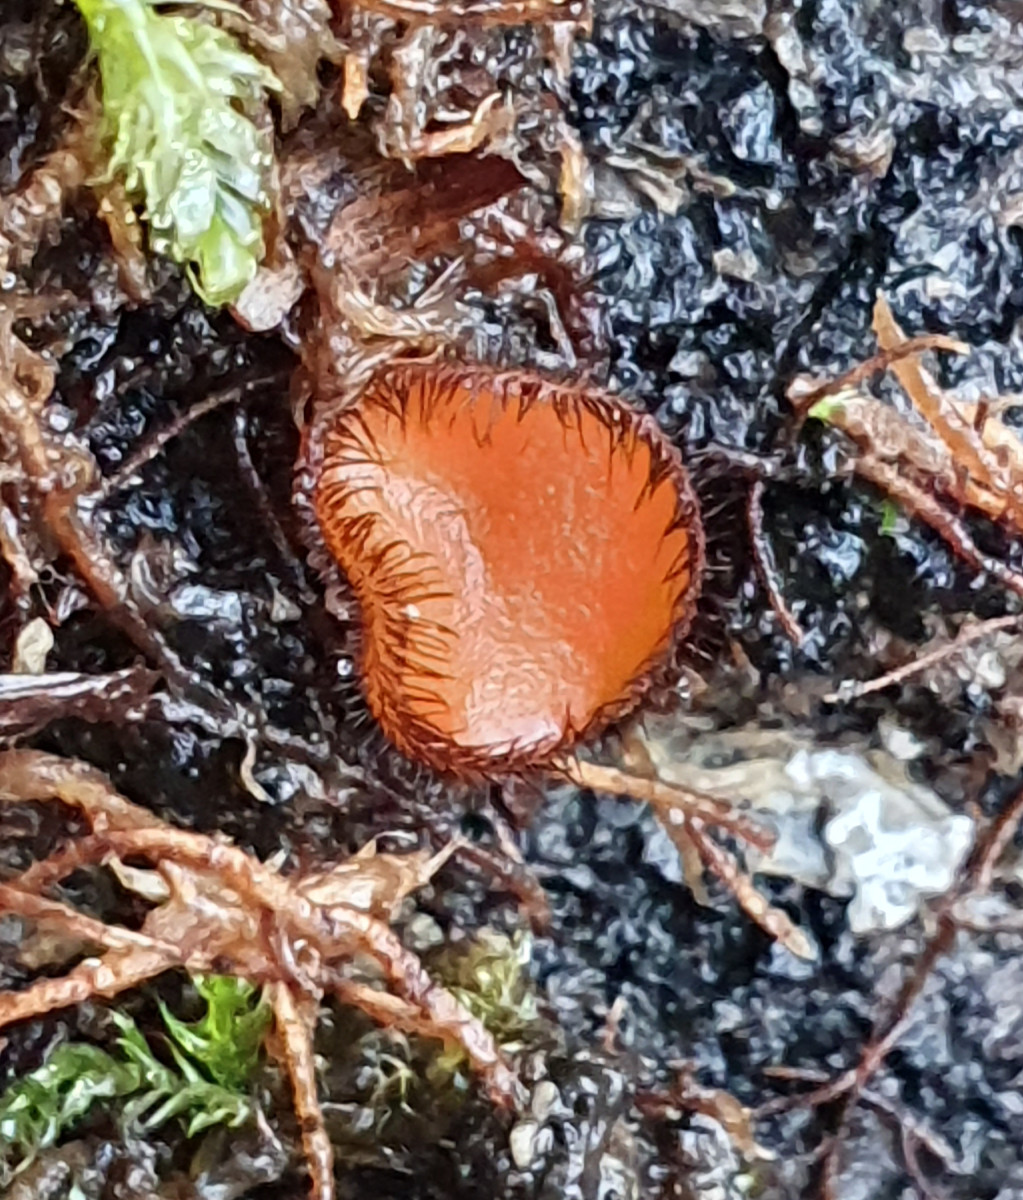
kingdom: Fungi
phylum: Ascomycota
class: Pezizomycetes
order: Pezizales
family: Pyronemataceae
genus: Scutellinia
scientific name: Scutellinia scutellata
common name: frynset skjoldbæger
